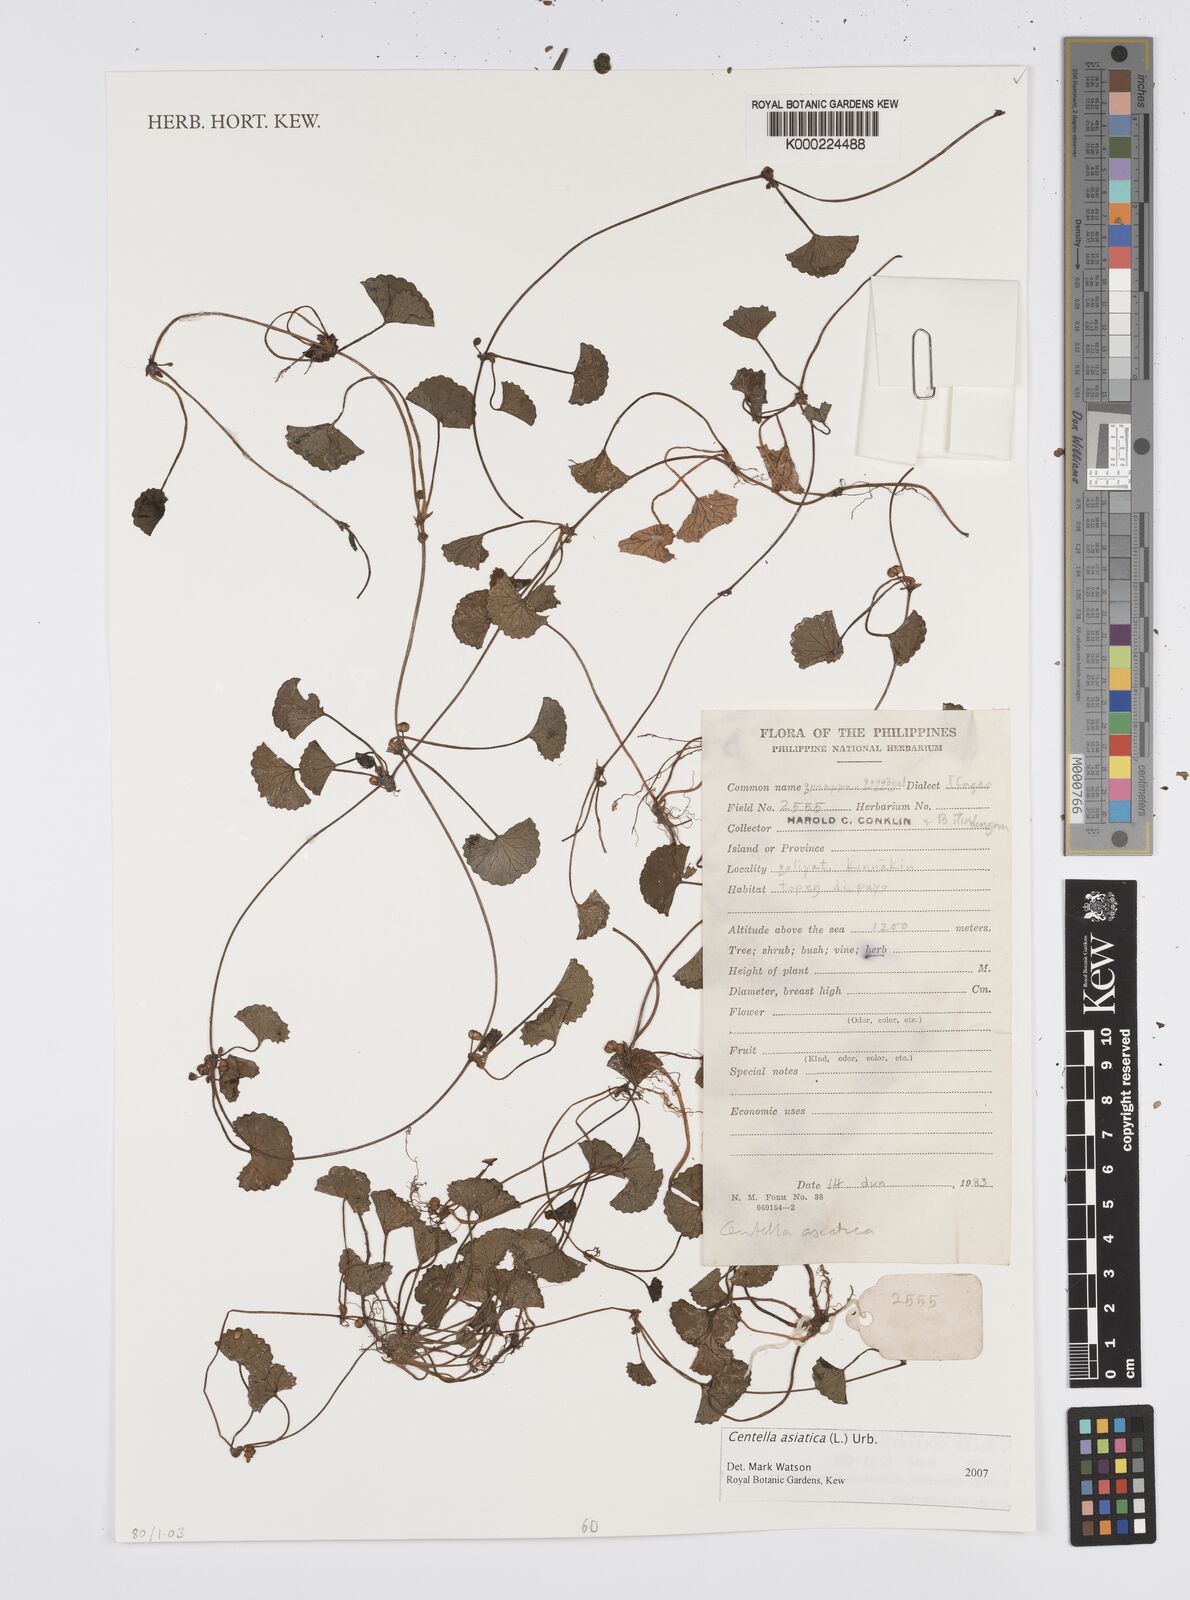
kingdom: Plantae
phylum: Tracheophyta
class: Magnoliopsida
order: Apiales
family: Apiaceae
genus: Centella
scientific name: Centella asiatica
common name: Spadeleaf
